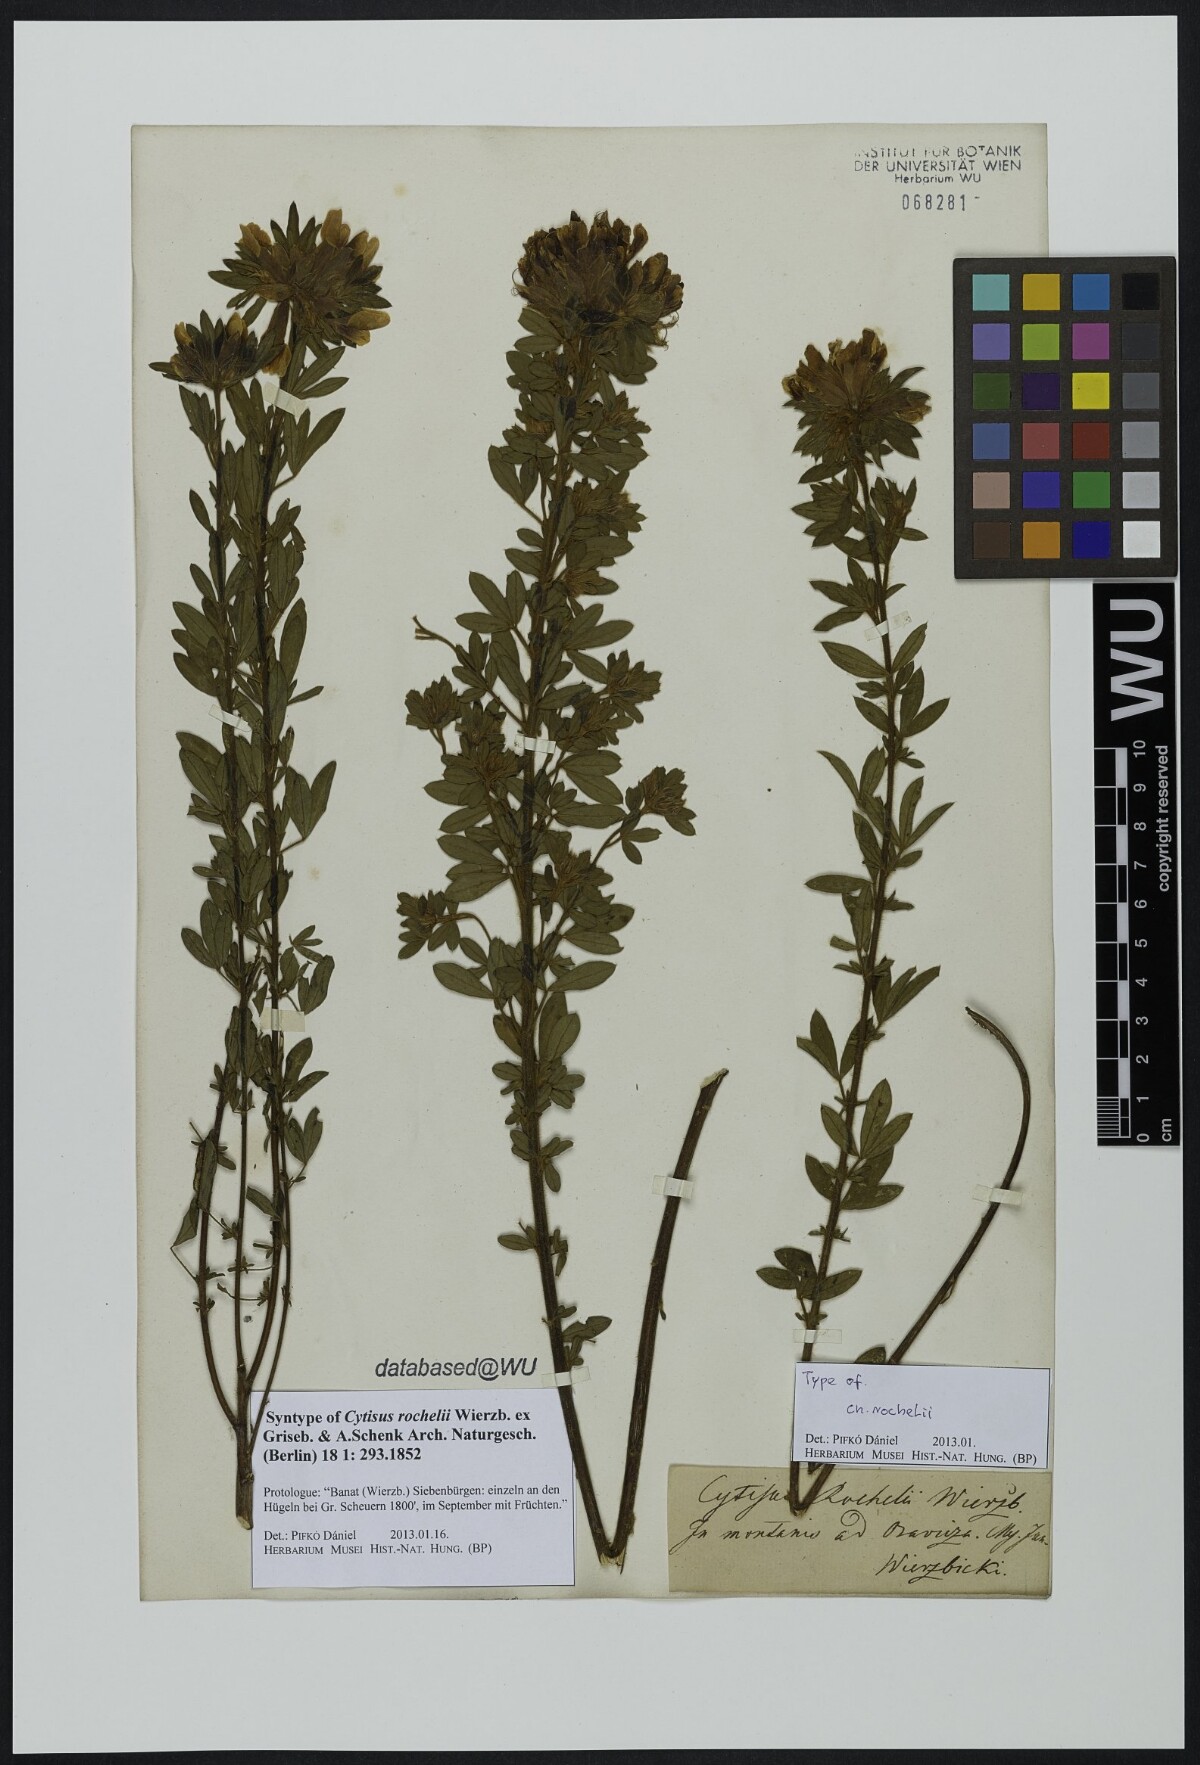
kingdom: Plantae
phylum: Tracheophyta
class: Magnoliopsida
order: Fabales
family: Fabaceae
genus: Chamaecytisus
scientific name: Chamaecytisus austriacus
